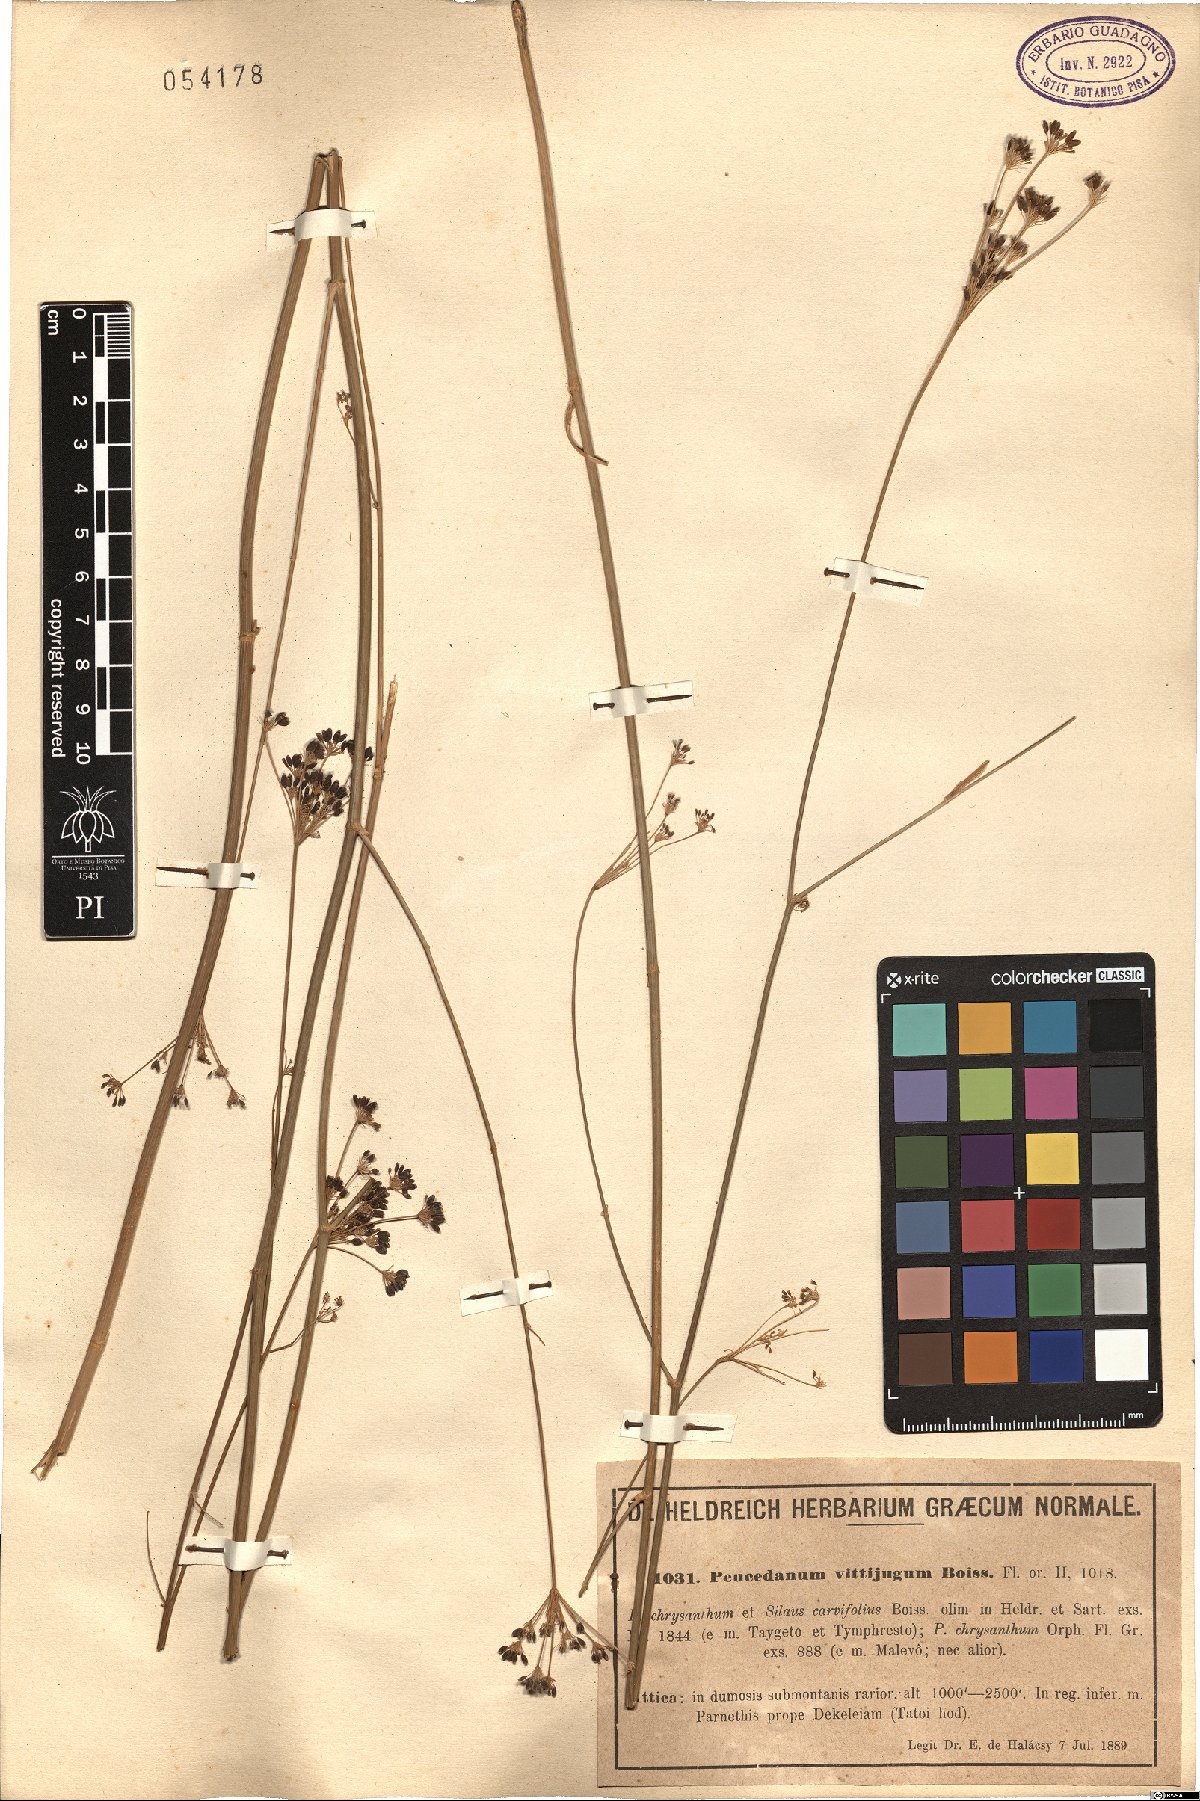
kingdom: Plantae
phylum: Tracheophyta
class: Magnoliopsida
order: Apiales
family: Apiaceae
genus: Dichoropetalum
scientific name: Dichoropetalum vittijugum
